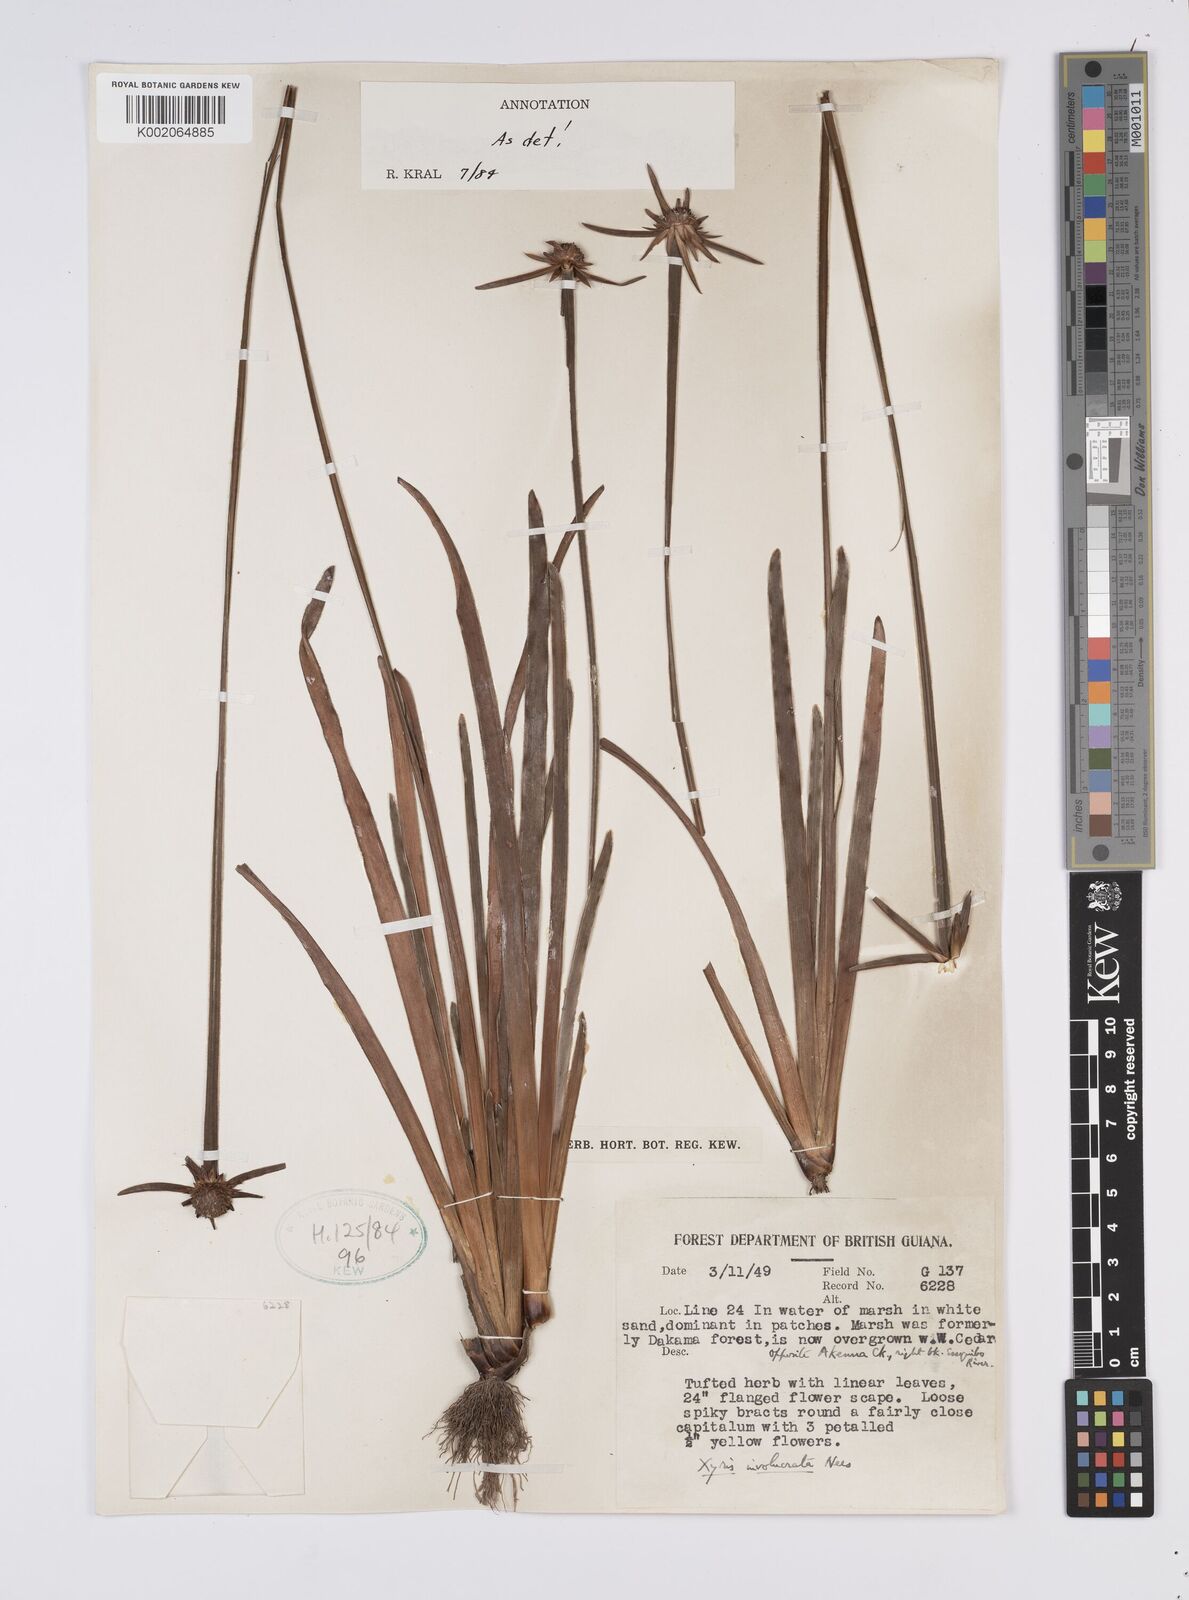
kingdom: Plantae
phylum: Tracheophyta
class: Liliopsida
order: Poales
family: Xyridaceae
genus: Xyris
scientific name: Xyris involucrata
